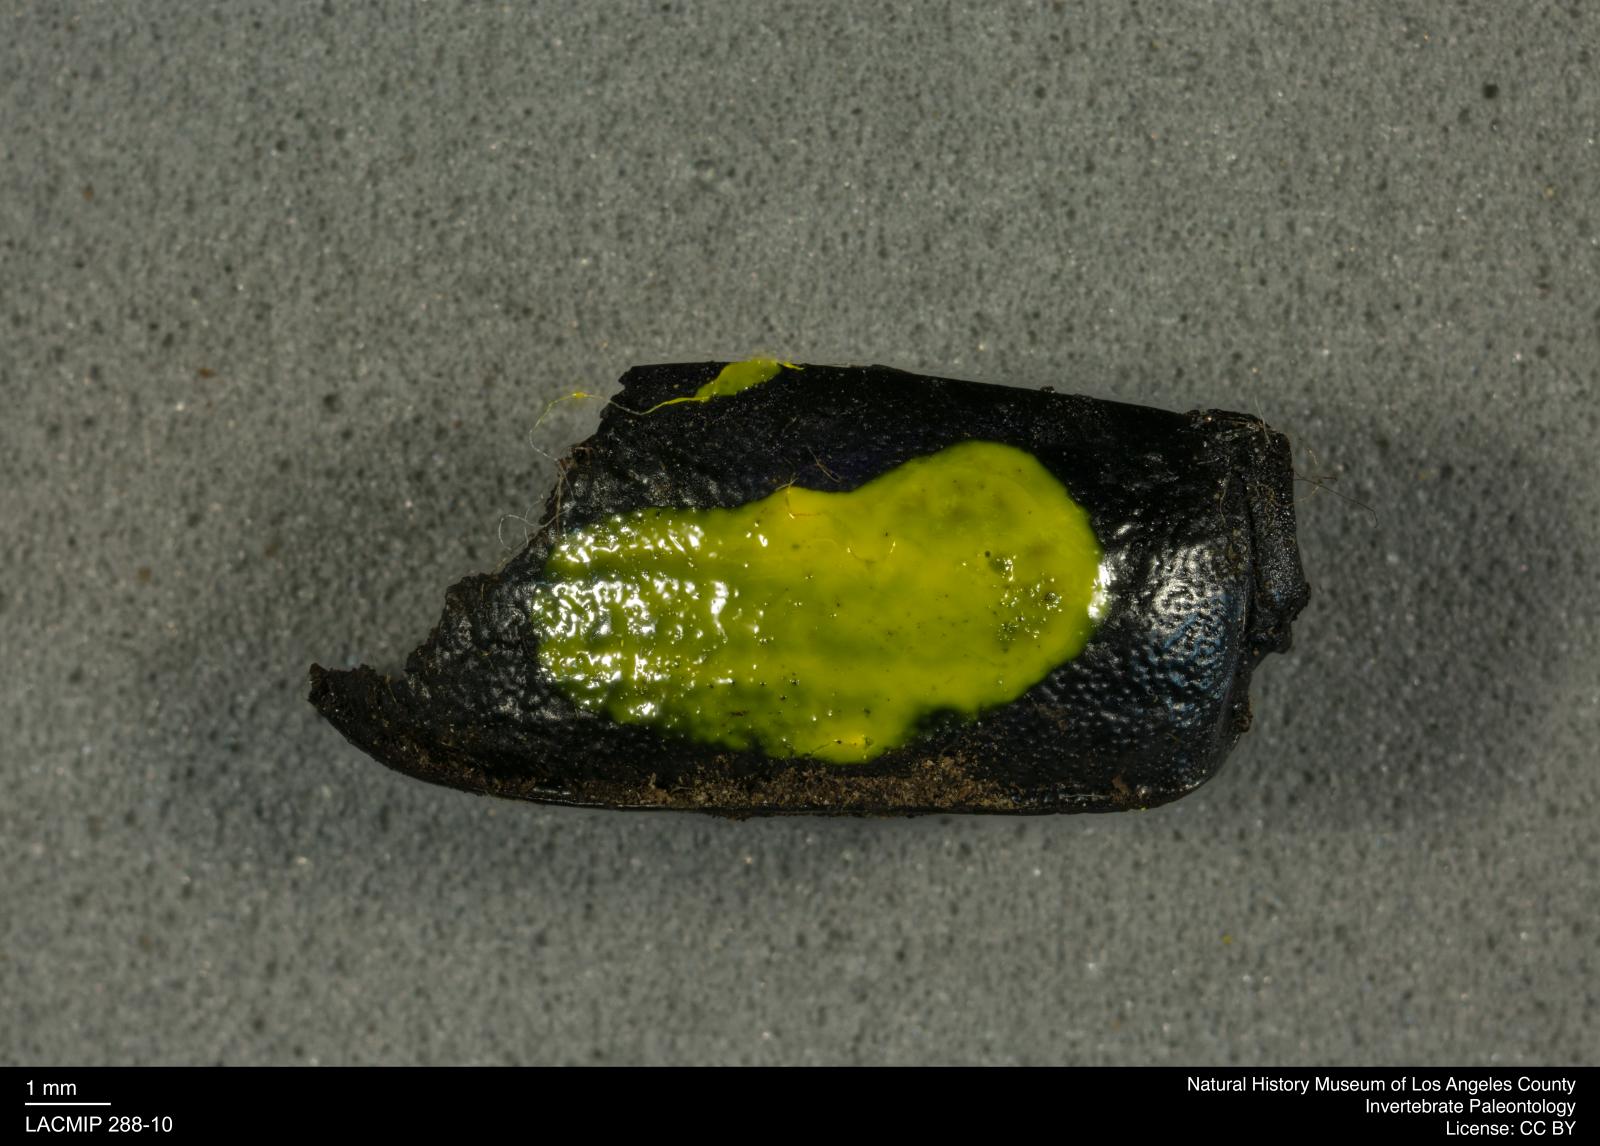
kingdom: Animalia
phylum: Arthropoda
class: Insecta
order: Coleoptera
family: Tenebrionidae
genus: Coniontis
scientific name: Coniontis abdominalis
